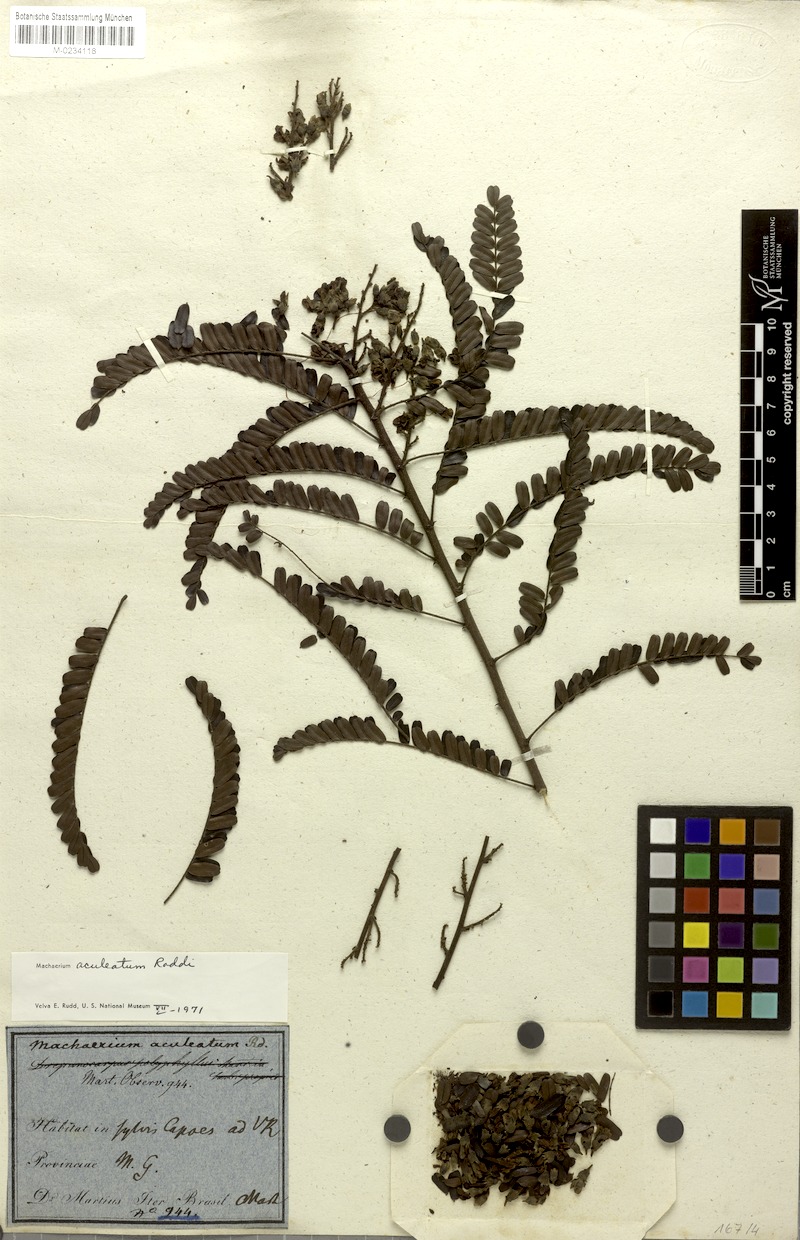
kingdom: Plantae
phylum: Tracheophyta
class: Magnoliopsida
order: Fabales
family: Fabaceae
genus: Machaerium
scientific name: Machaerium aculeatum
